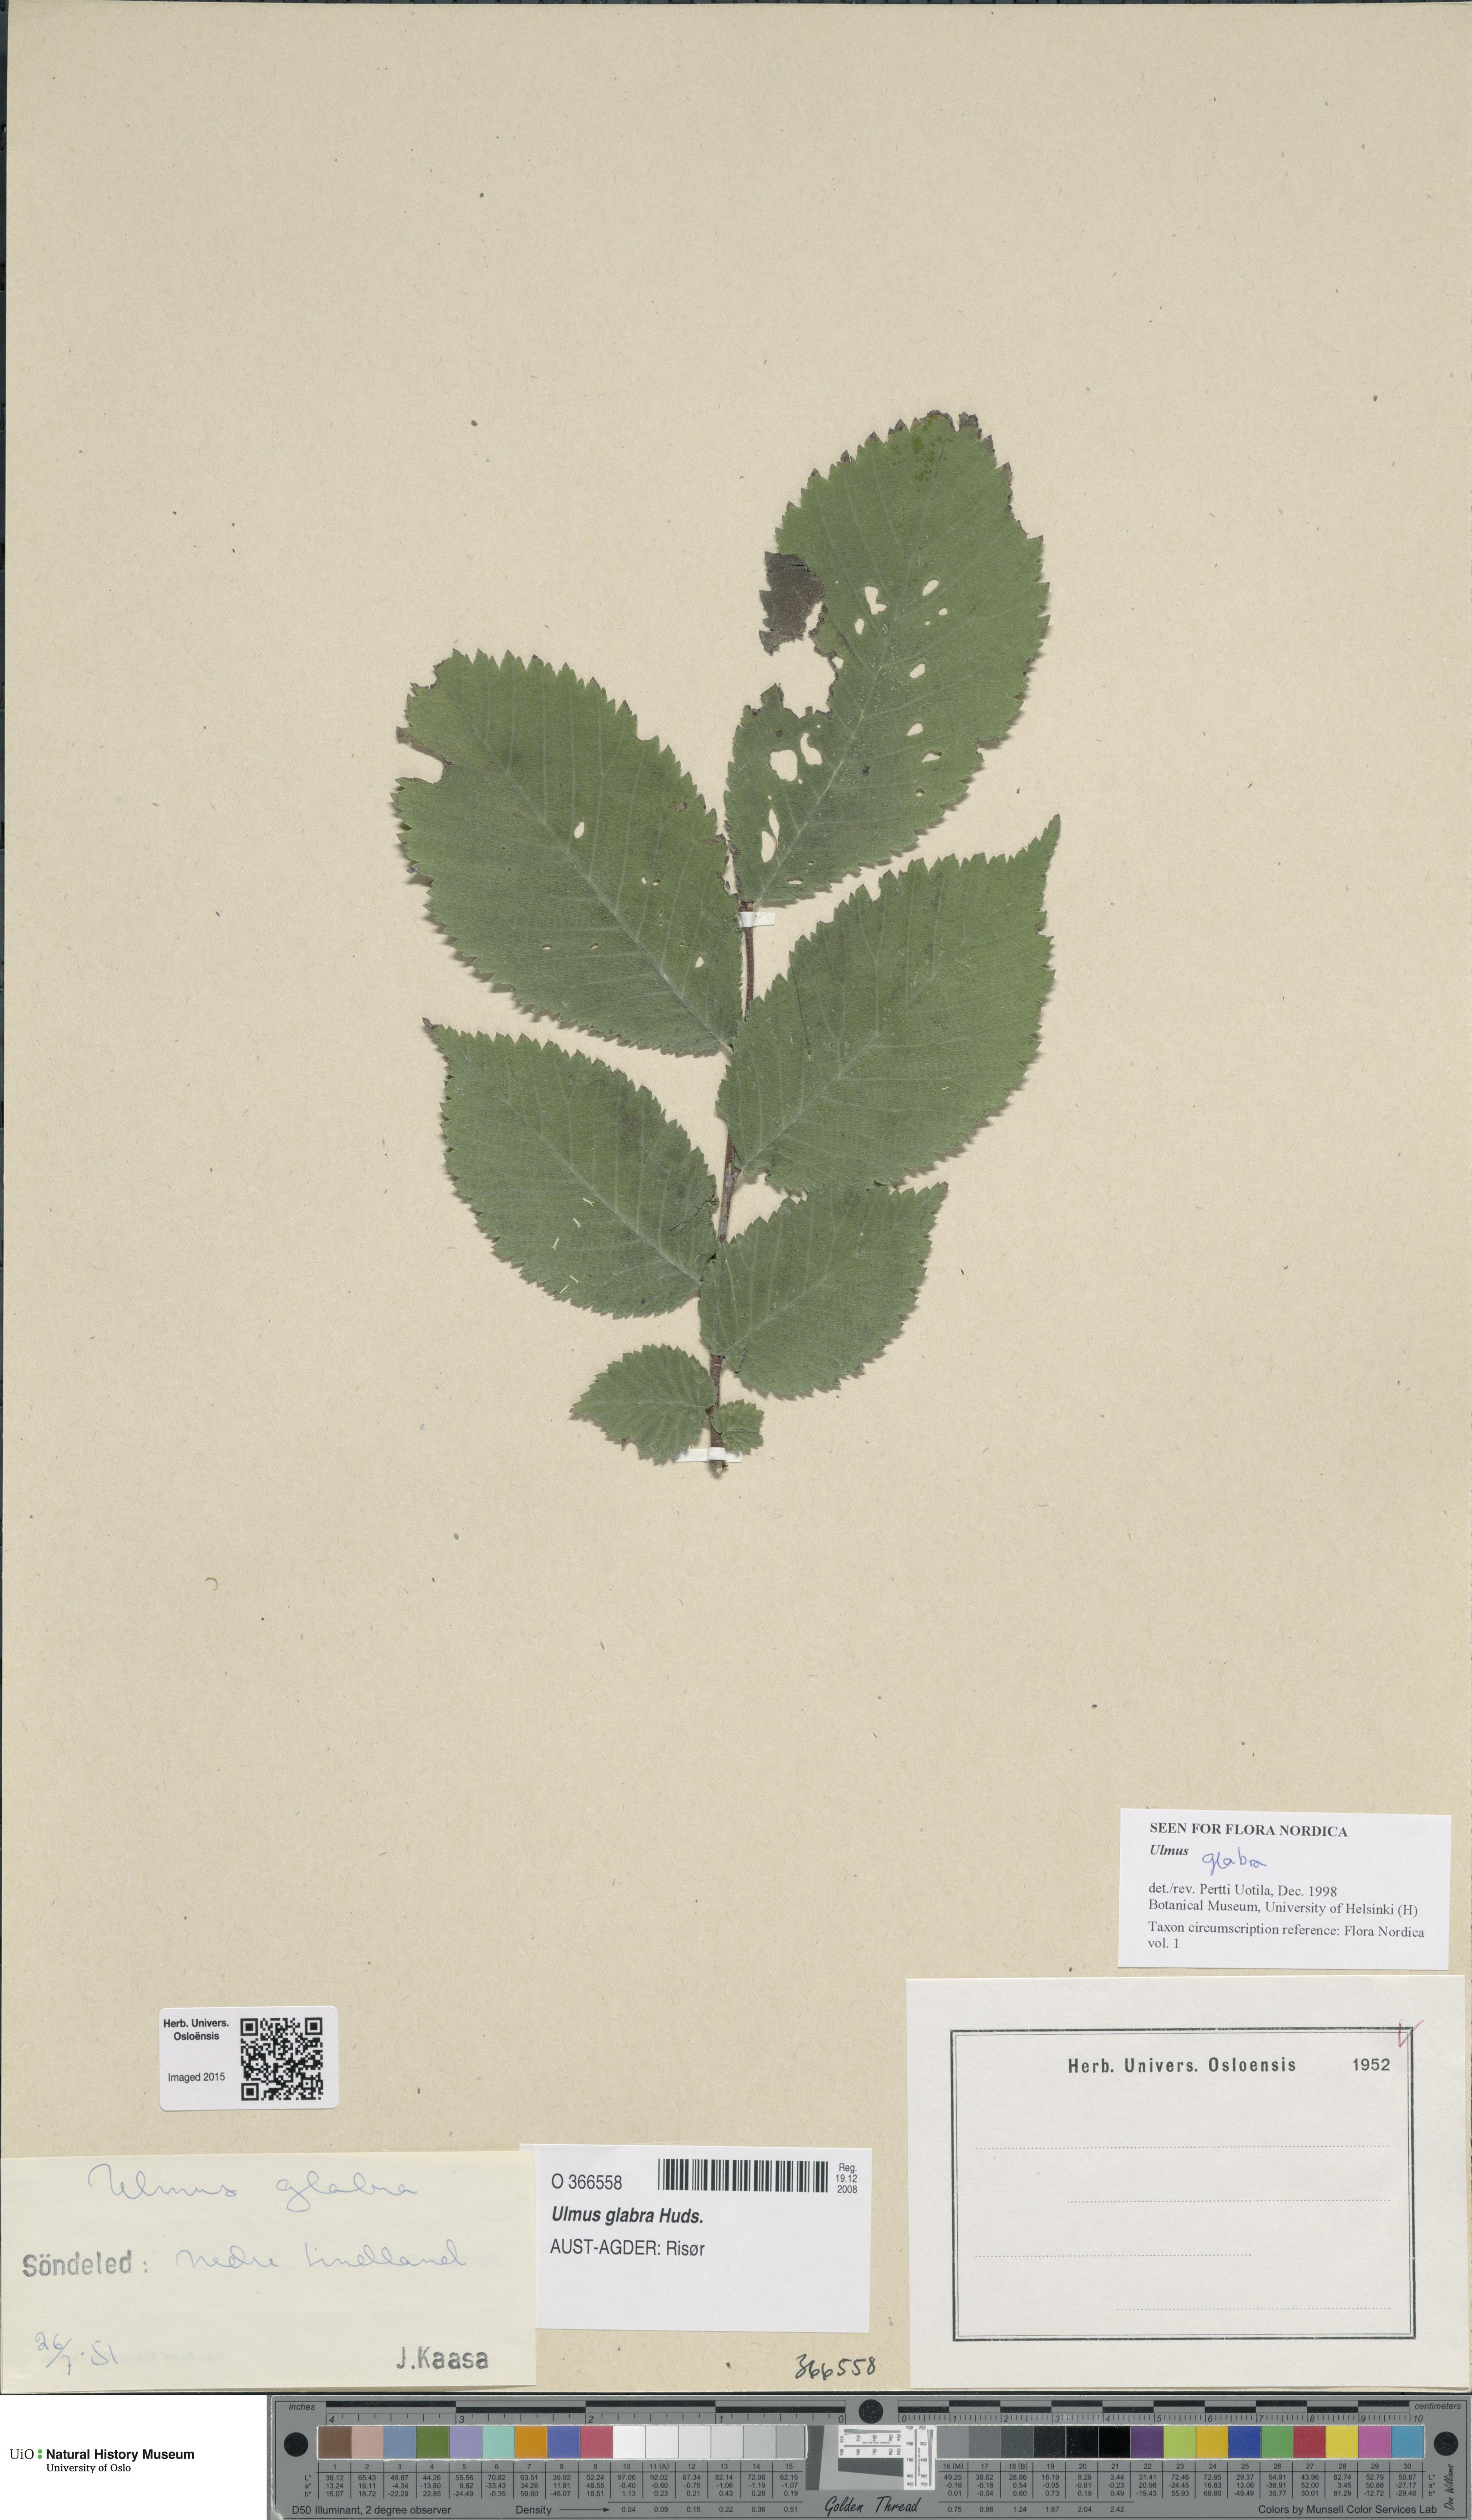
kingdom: Plantae
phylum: Tracheophyta
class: Magnoliopsida
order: Rosales
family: Ulmaceae
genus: Ulmus
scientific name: Ulmus glabra
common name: Wych elm
